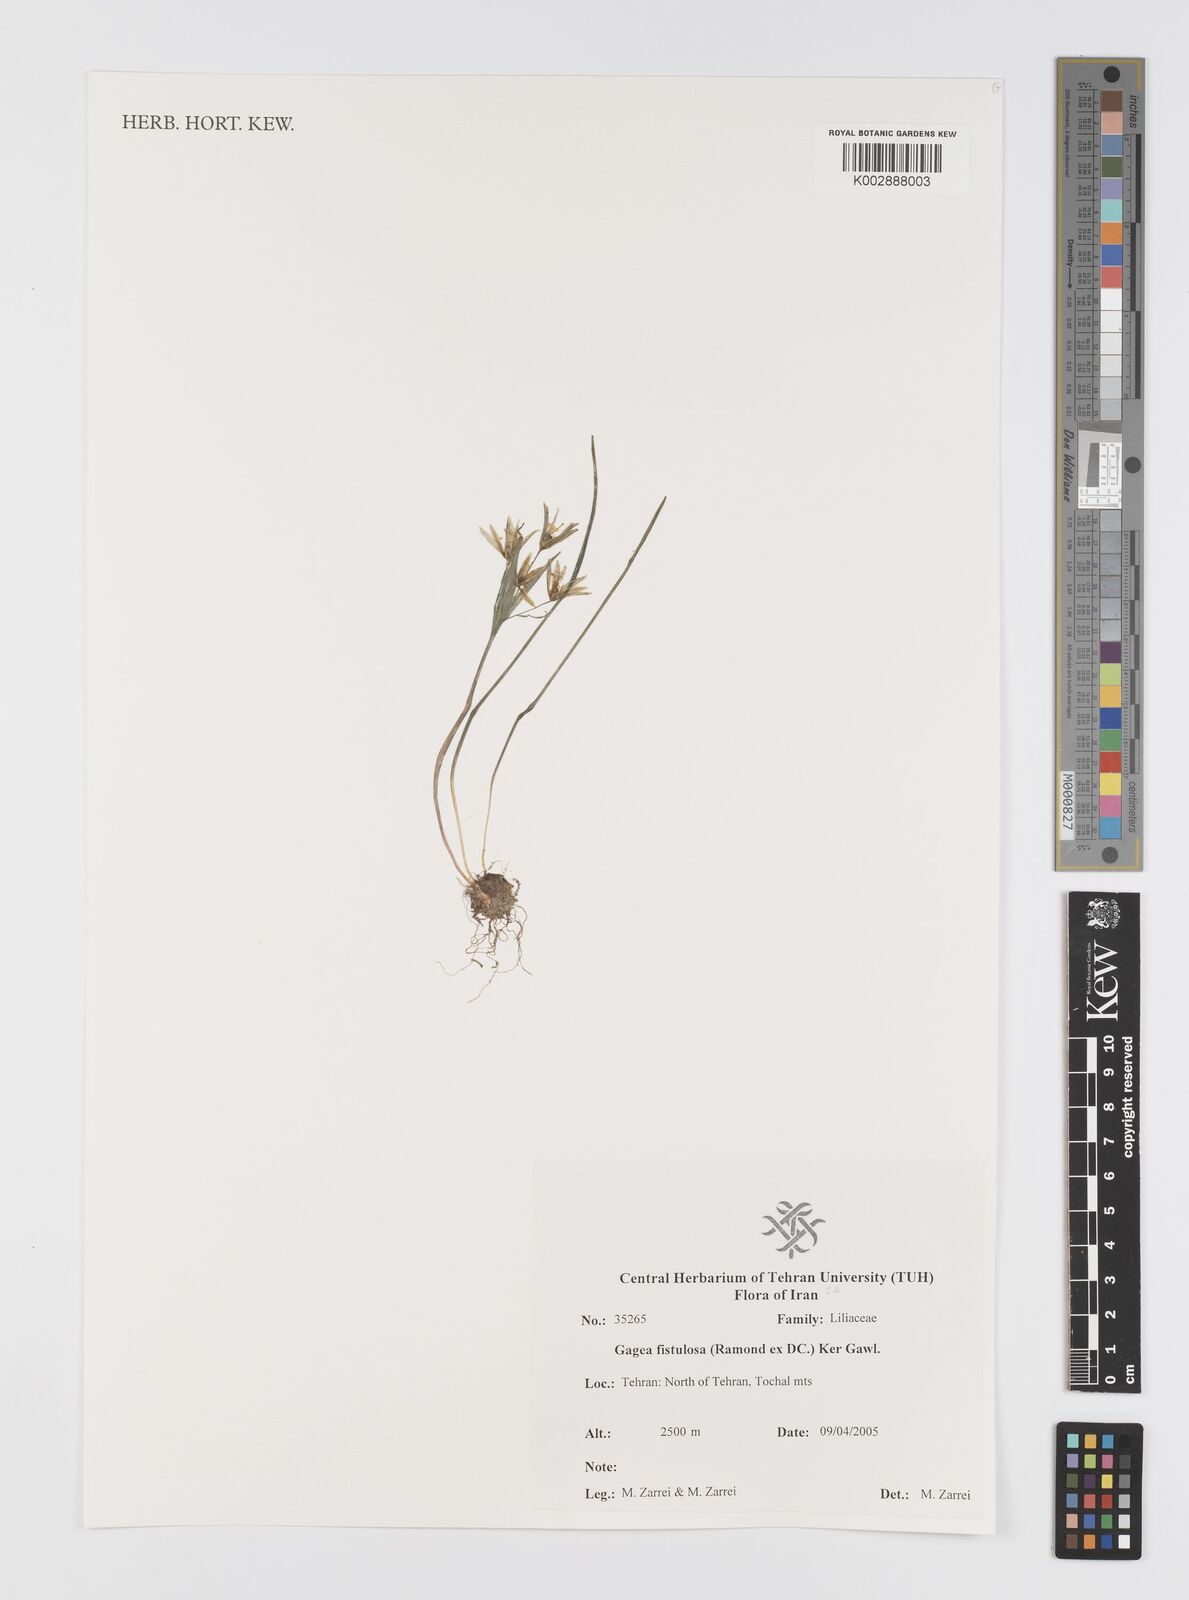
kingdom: Plantae
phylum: Tracheophyta
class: Liliopsida
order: Liliales
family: Liliaceae
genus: Gagea
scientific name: Gagea bohemica
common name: Early star-of-bethlehem
